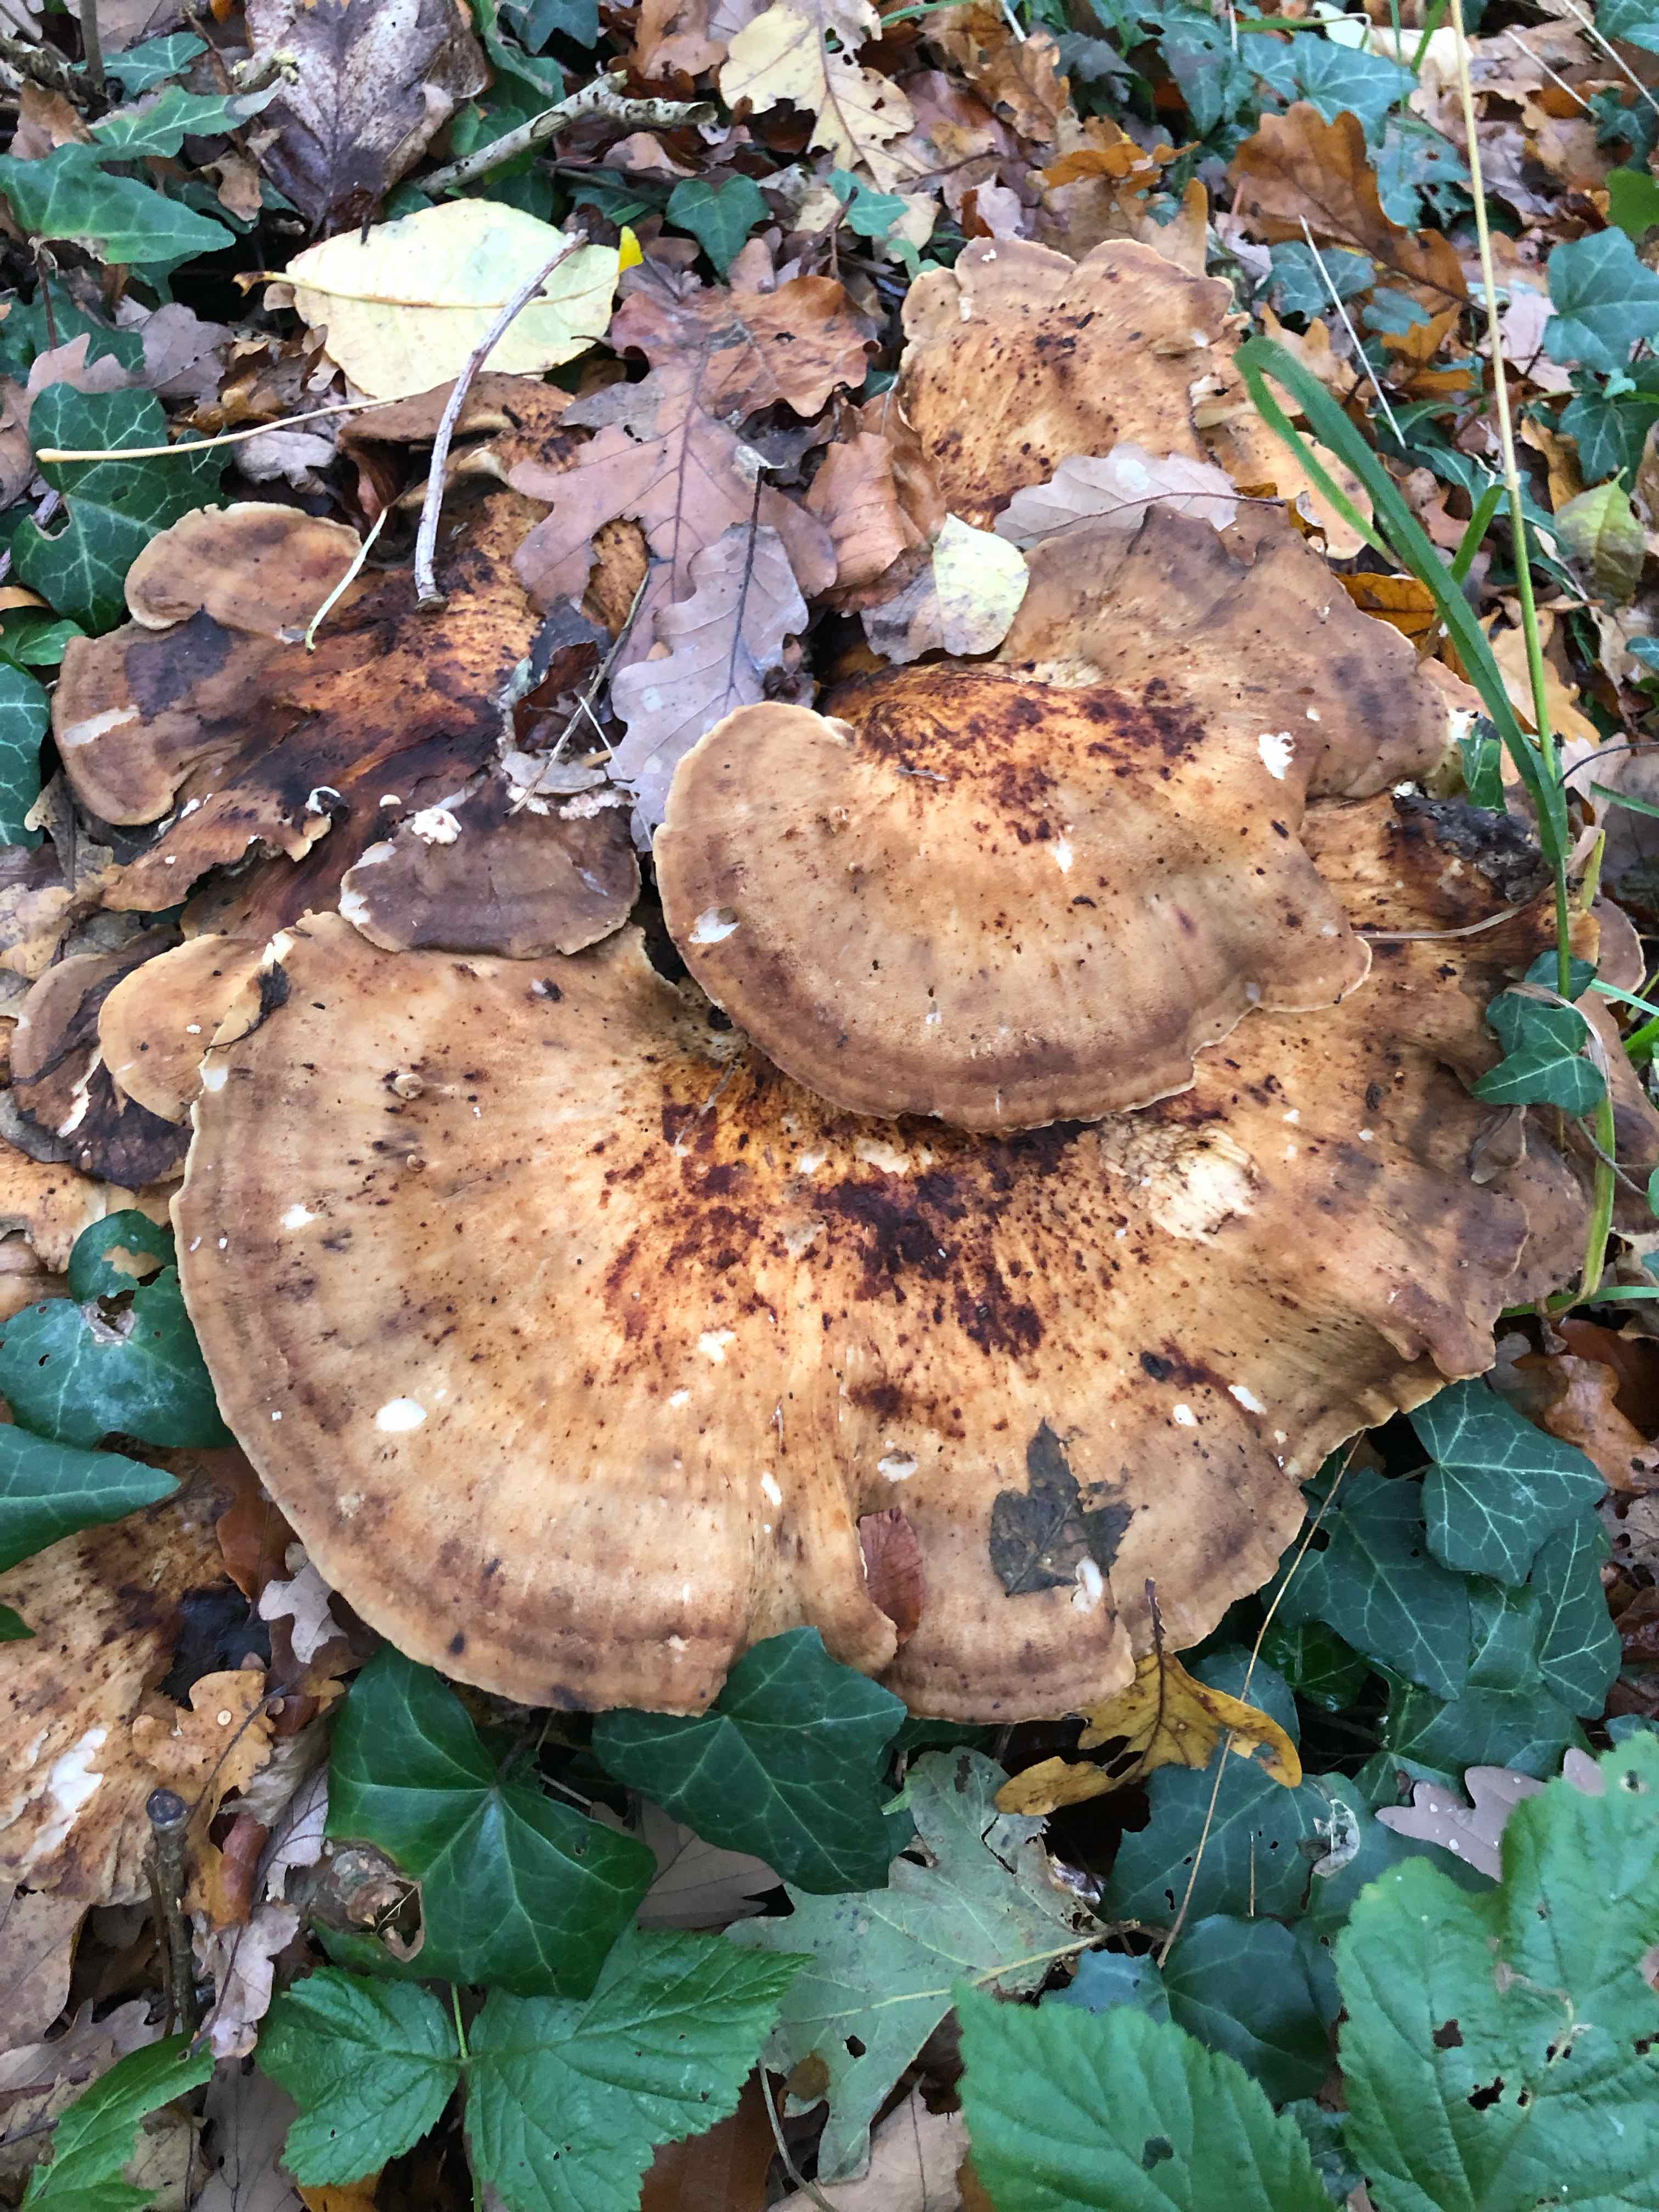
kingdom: Fungi
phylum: Basidiomycota
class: Agaricomycetes
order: Polyporales
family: Meripilaceae
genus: Meripilus
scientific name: Meripilus giganteus
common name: kæmpeporesvamp
